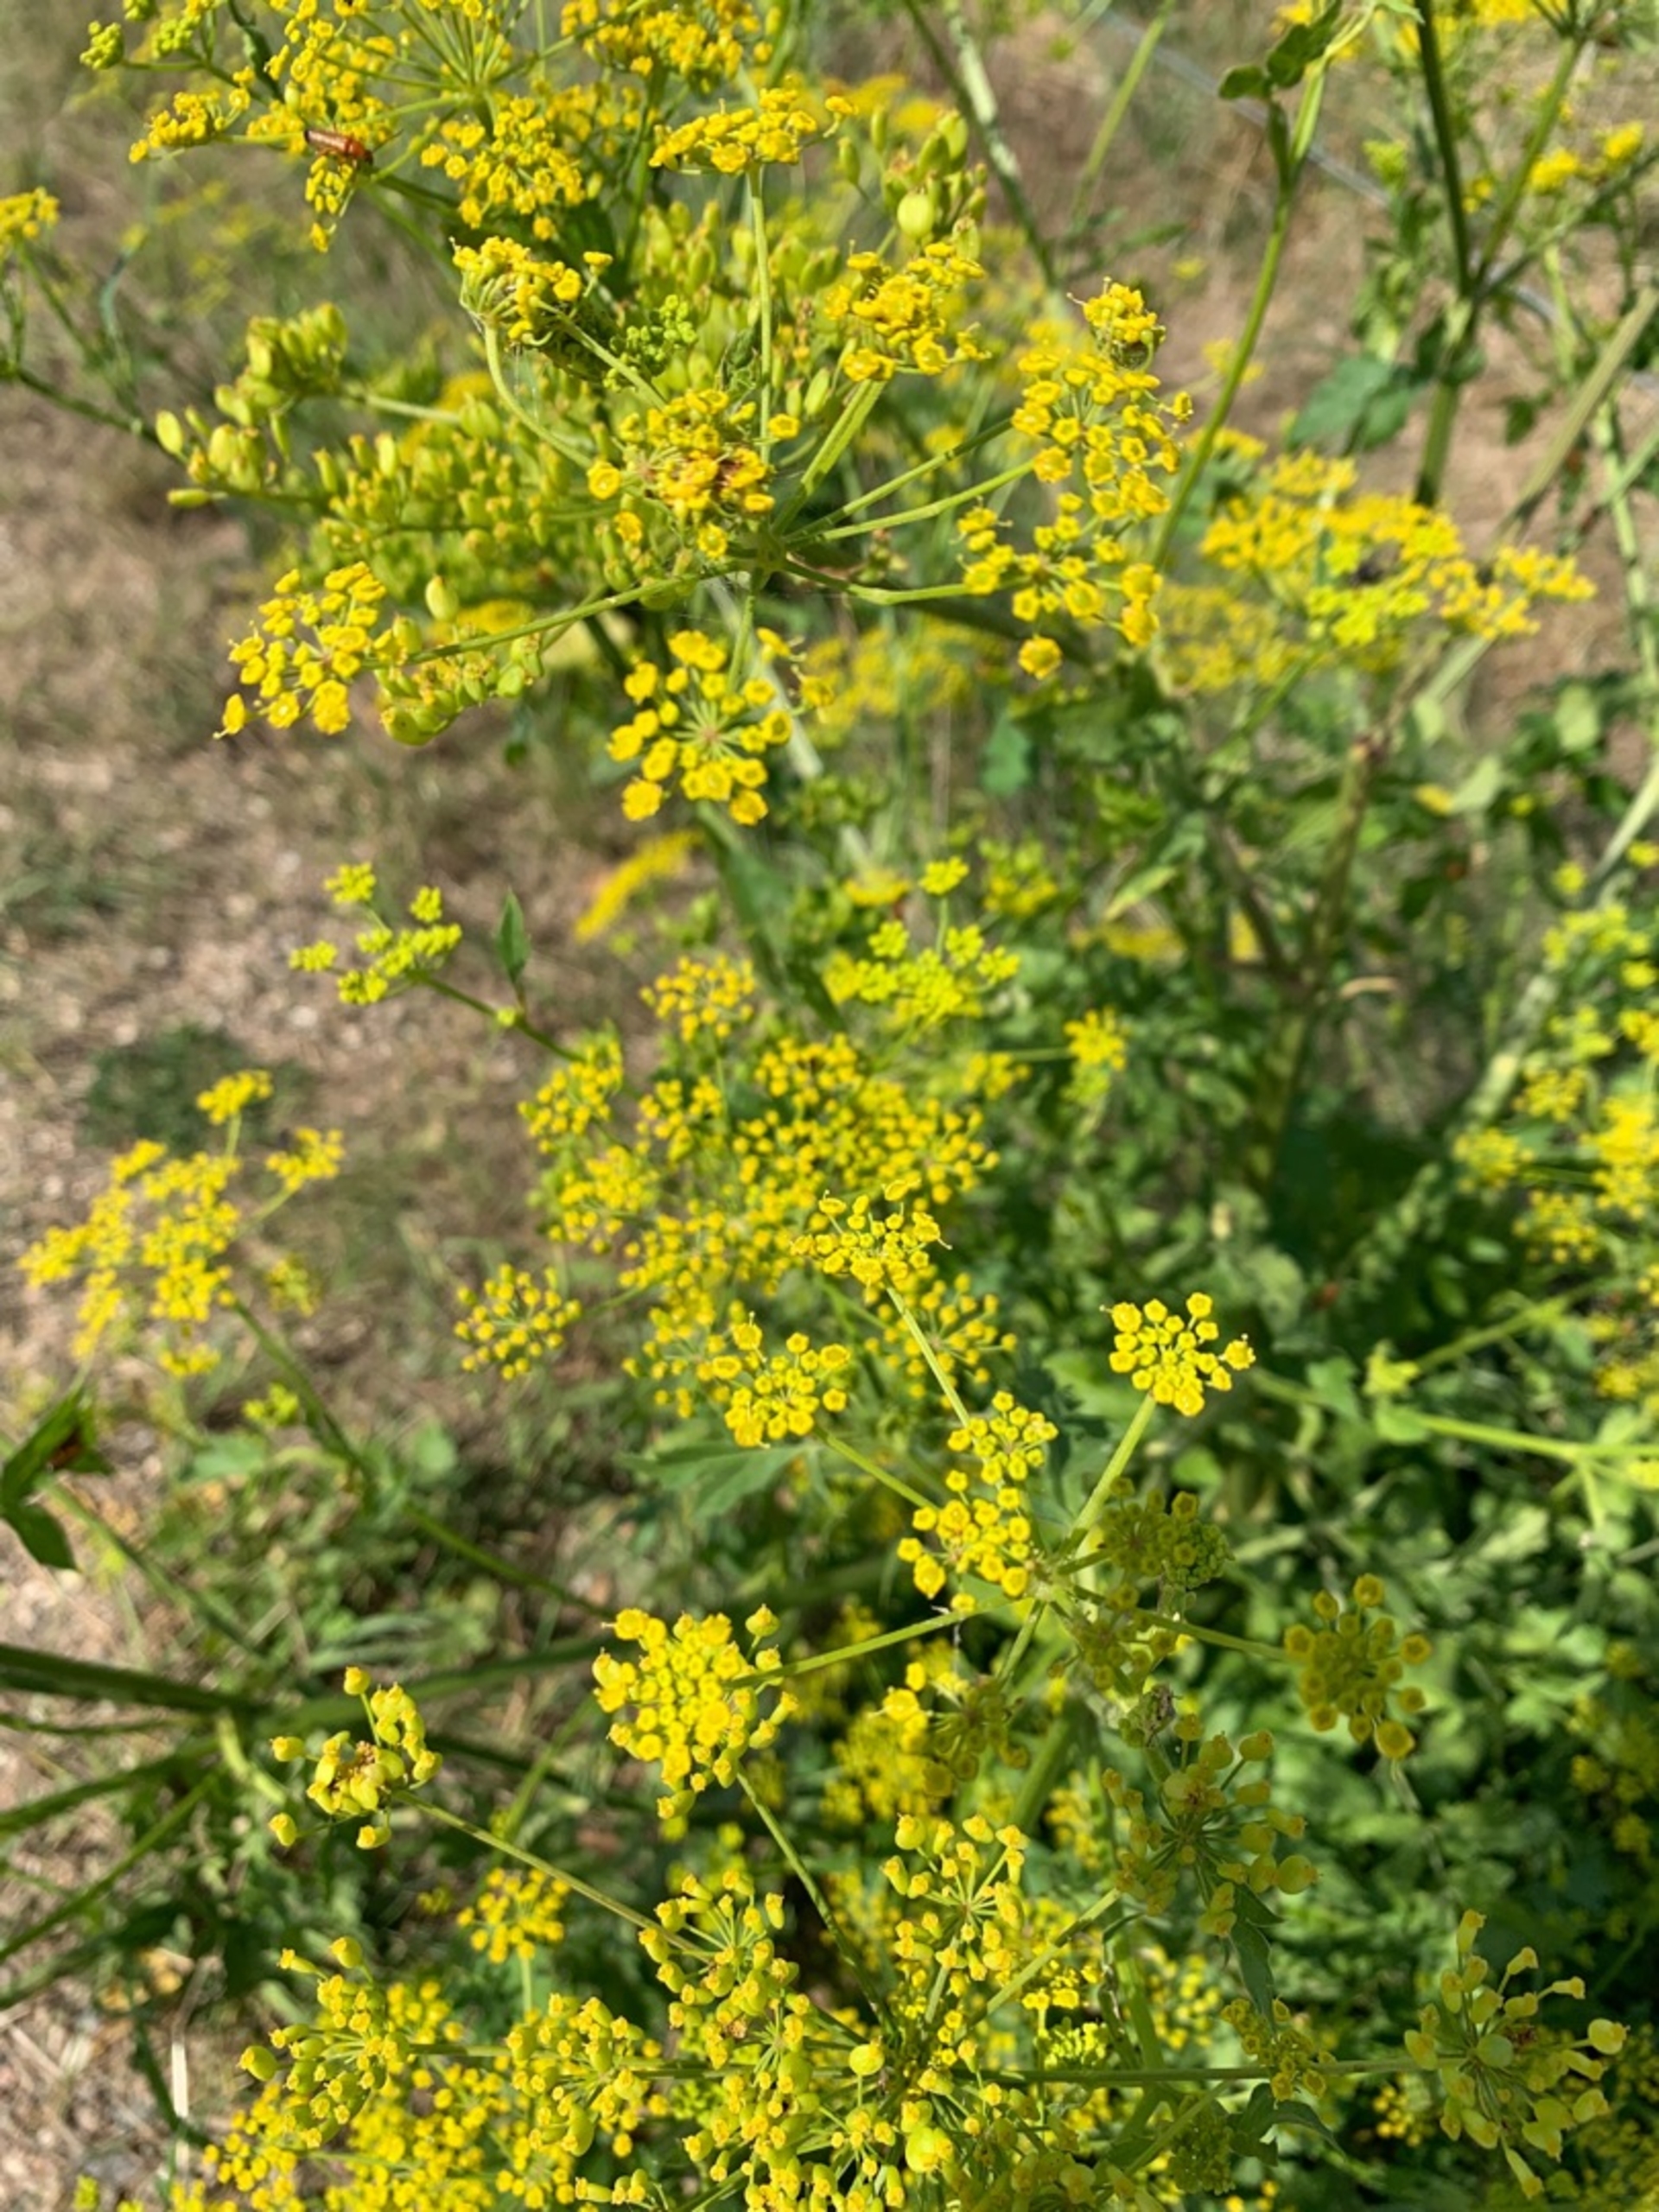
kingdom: Plantae
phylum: Tracheophyta
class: Magnoliopsida
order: Apiales
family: Apiaceae
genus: Pastinaca
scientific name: Pastinaca sativa
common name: Vild pastinak
